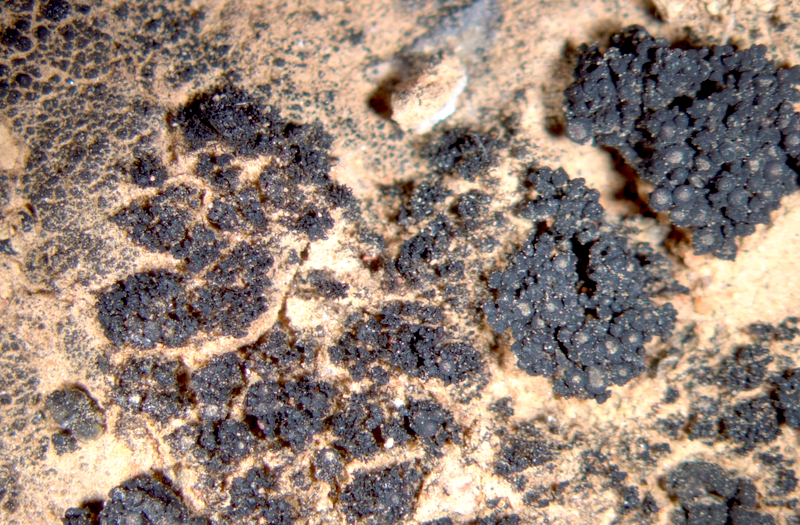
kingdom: Fungi
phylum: Ascomycota
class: Lichinomycetes
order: Lichinales
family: Lichinaceae
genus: Peccania
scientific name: Peccania
